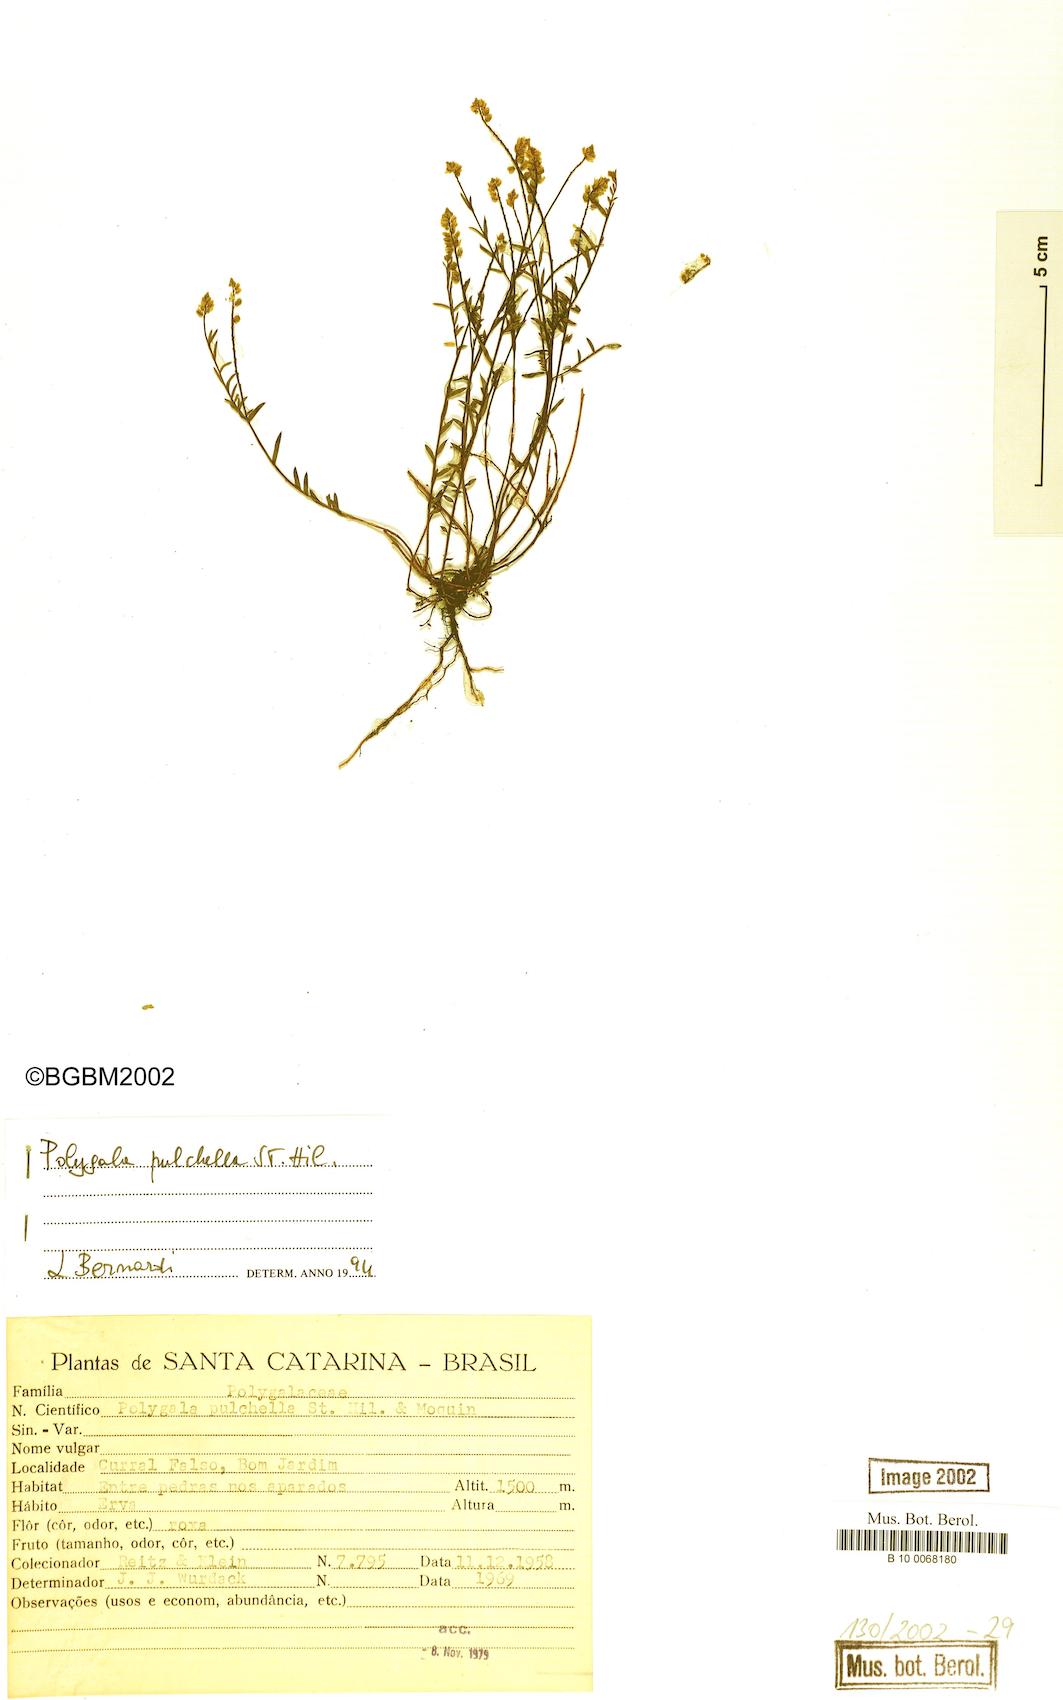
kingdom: Plantae
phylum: Tracheophyta
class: Magnoliopsida
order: Fabales
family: Polygalaceae
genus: Polygala
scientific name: Polygala pulchella
